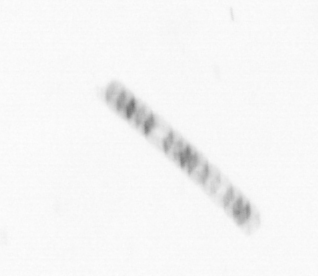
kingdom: Chromista
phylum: Ochrophyta
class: Bacillariophyceae
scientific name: Bacillariophyceae
